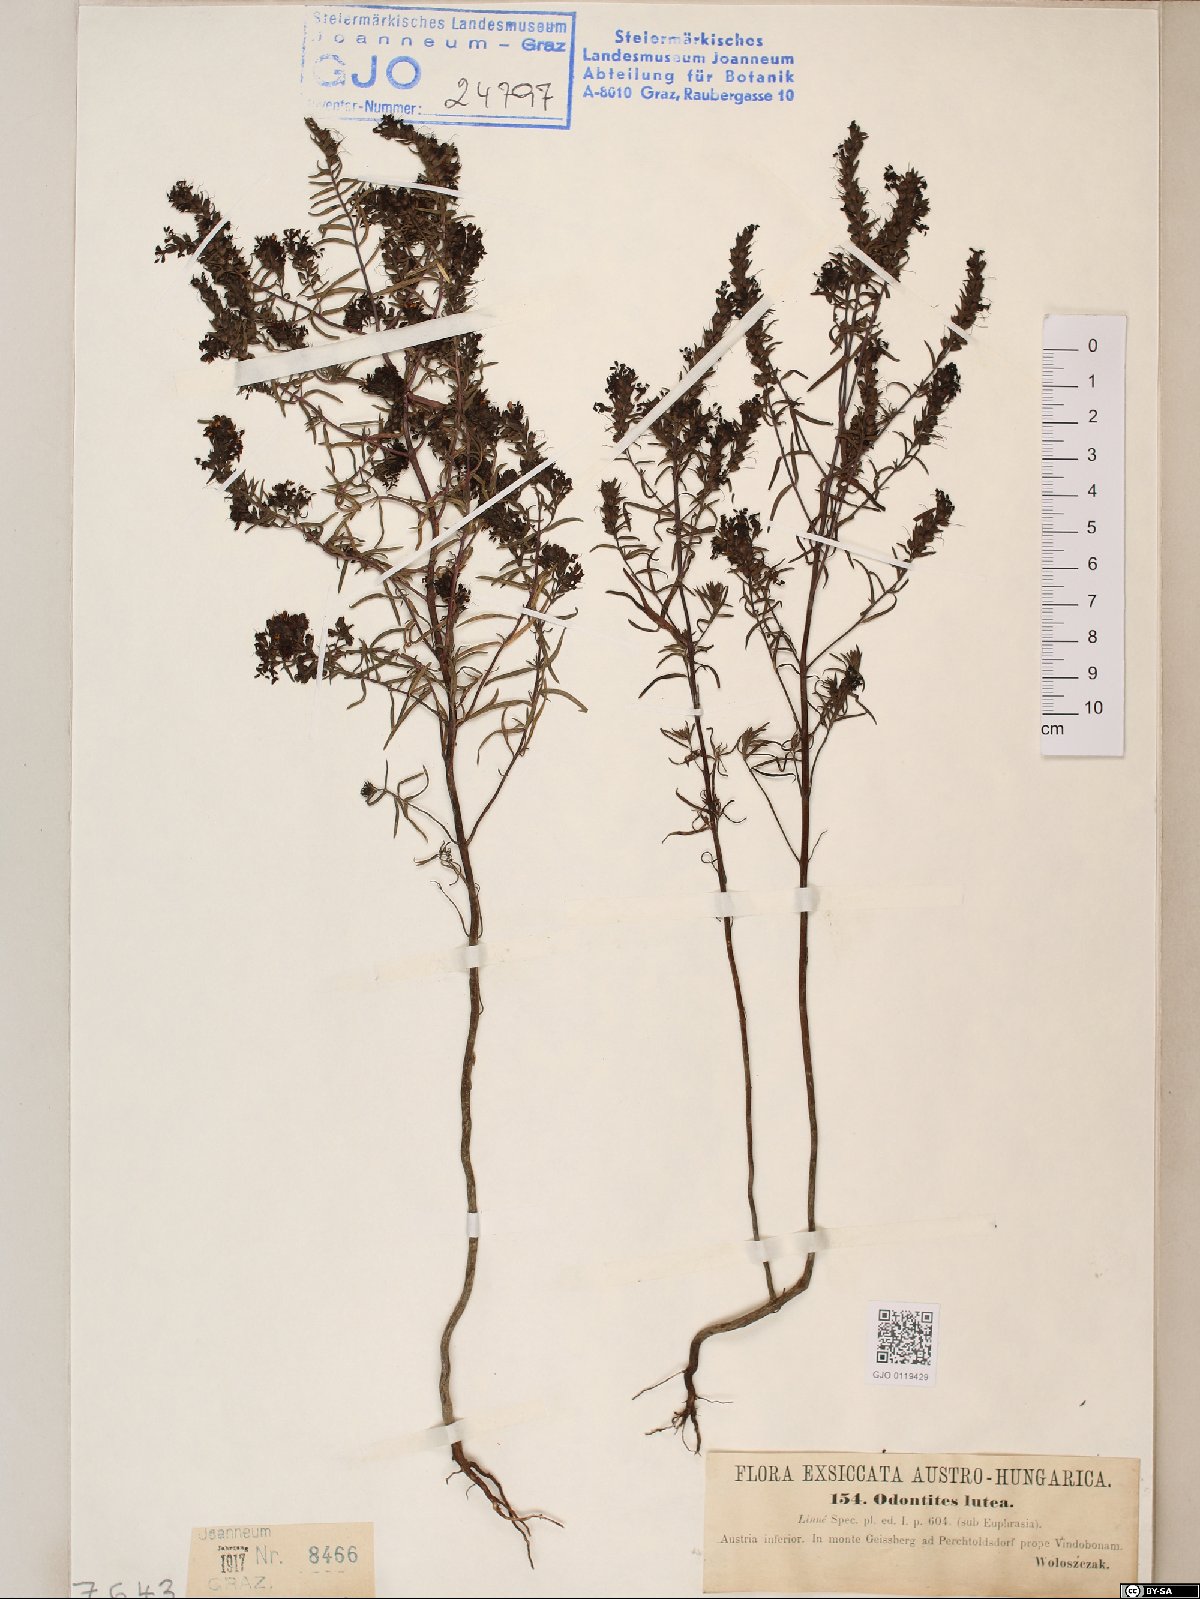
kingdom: Plantae
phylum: Tracheophyta
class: Magnoliopsida
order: Lamiales
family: Orobanchaceae
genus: Odontites
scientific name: Odontites luteus
